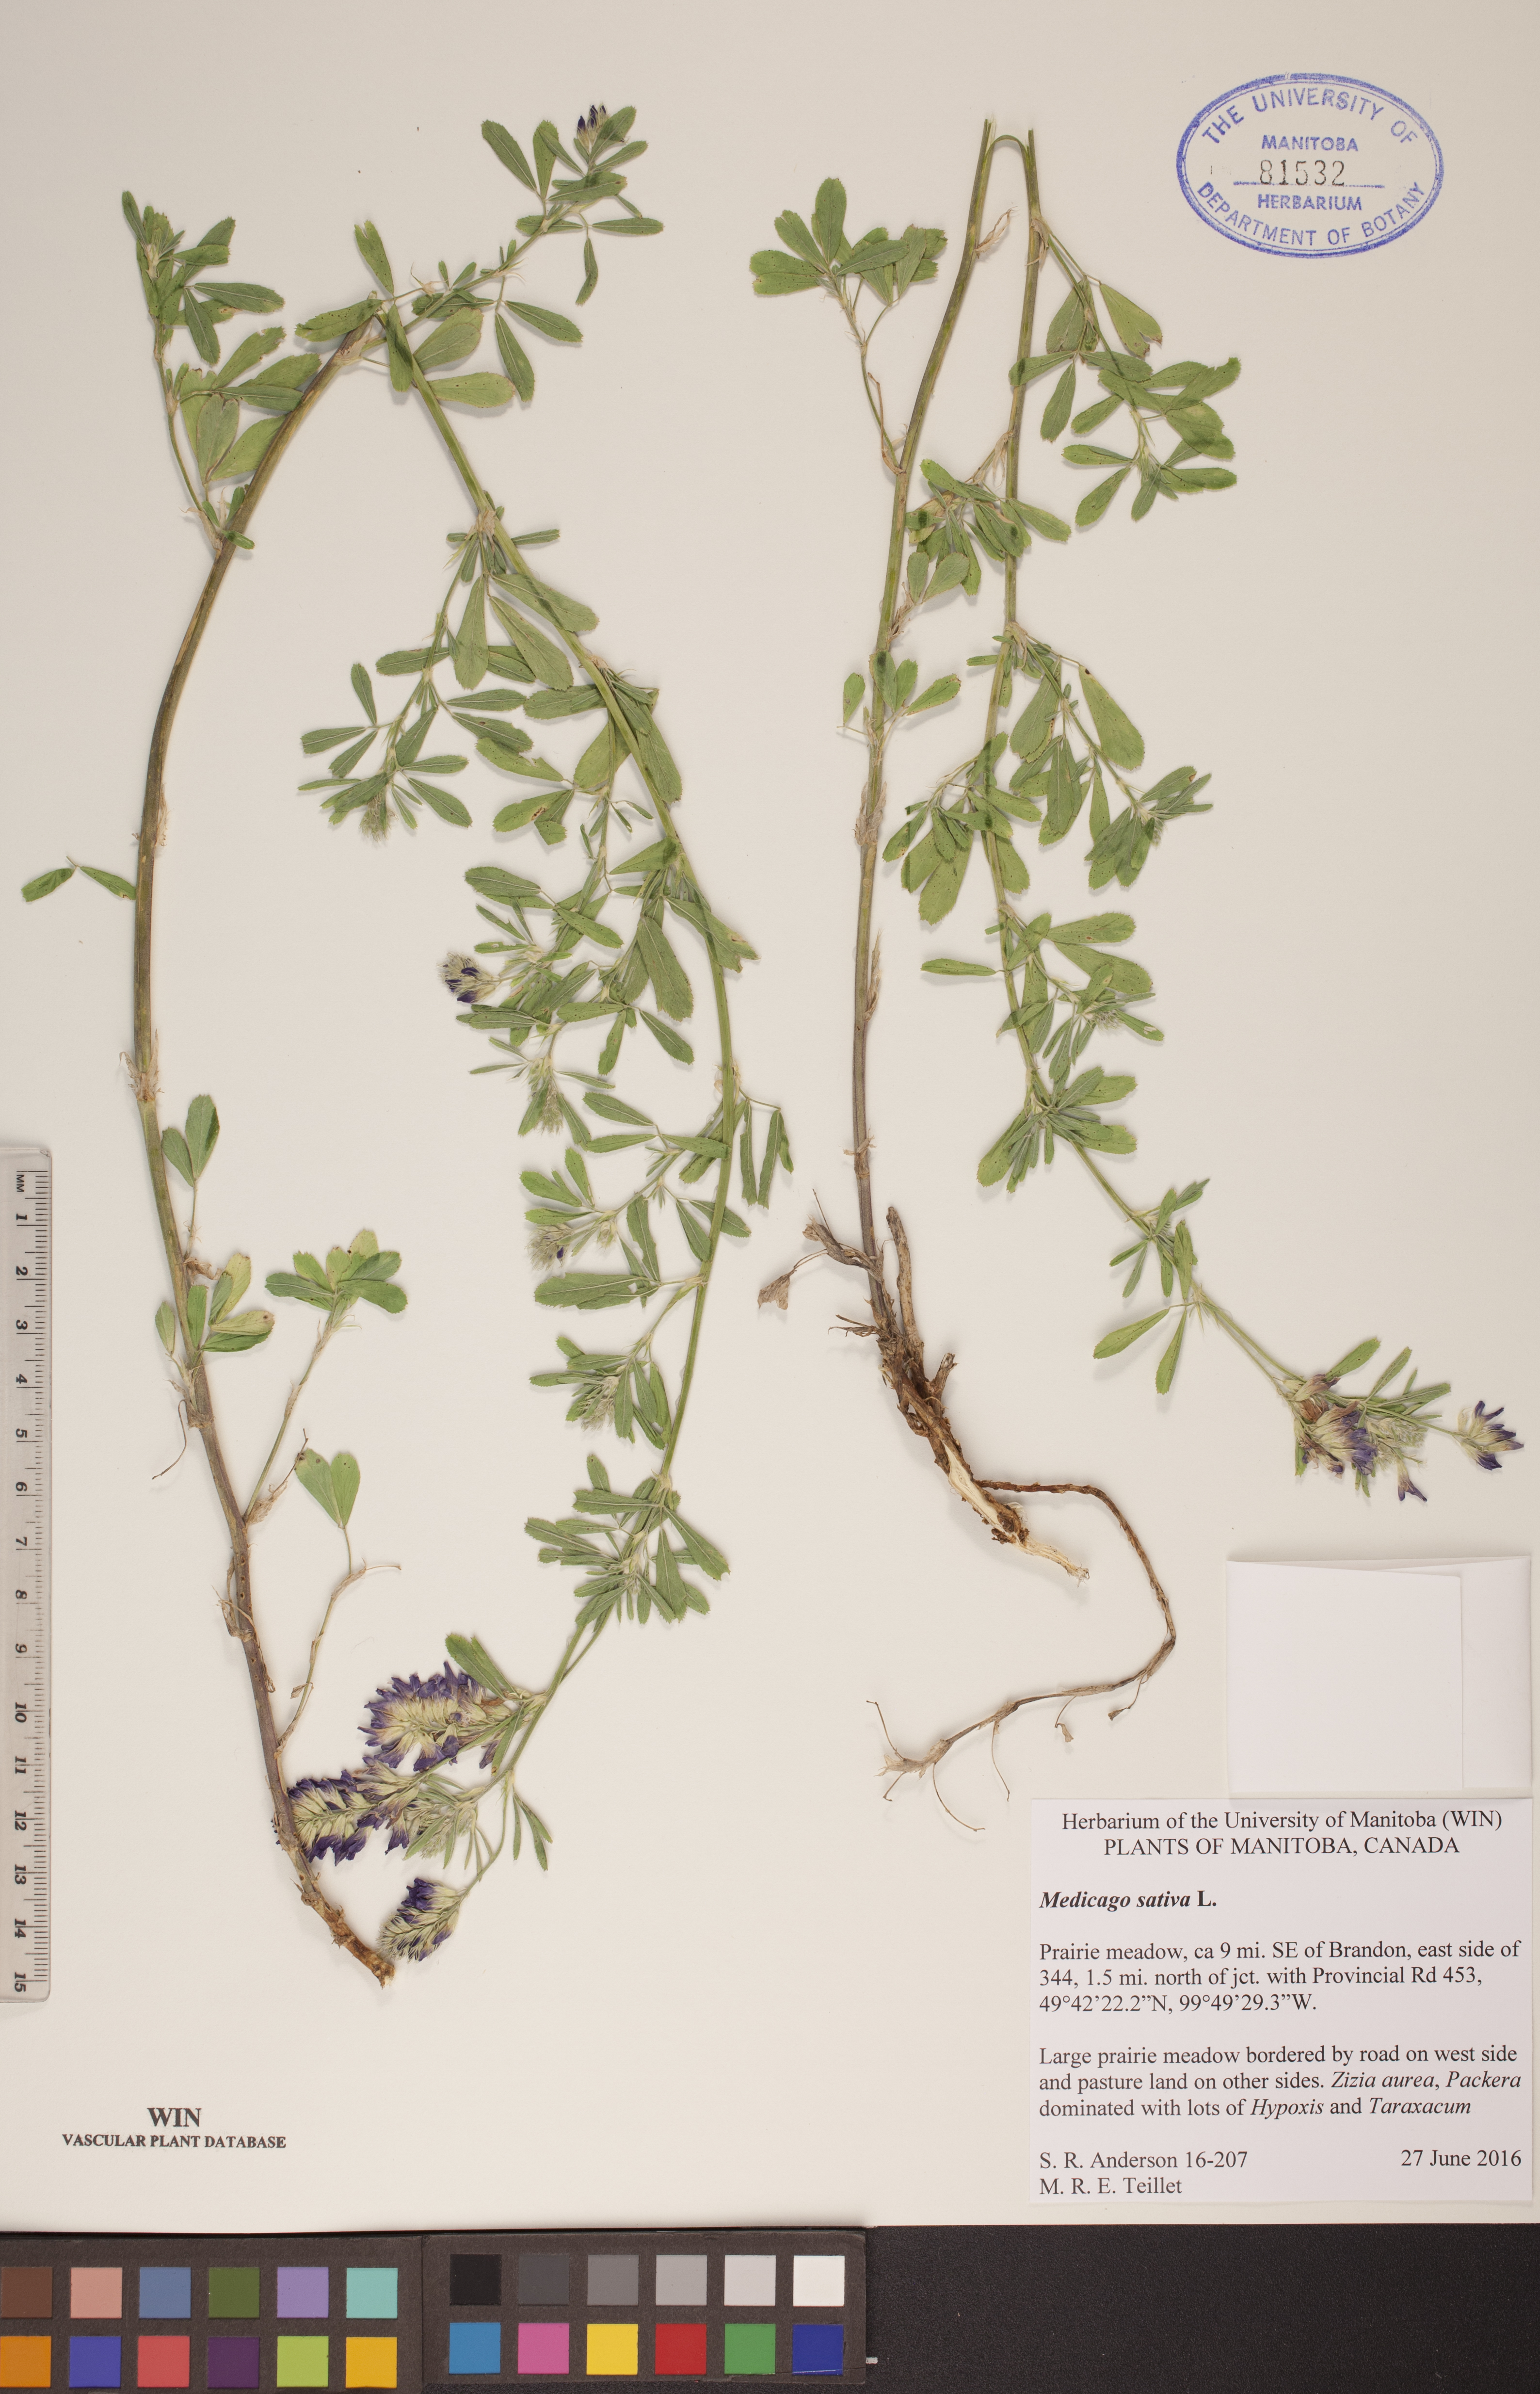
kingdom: Plantae
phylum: Tracheophyta
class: Magnoliopsida
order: Fabales
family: Fabaceae
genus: Medicago
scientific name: Medicago sativa
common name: Alfalfa
